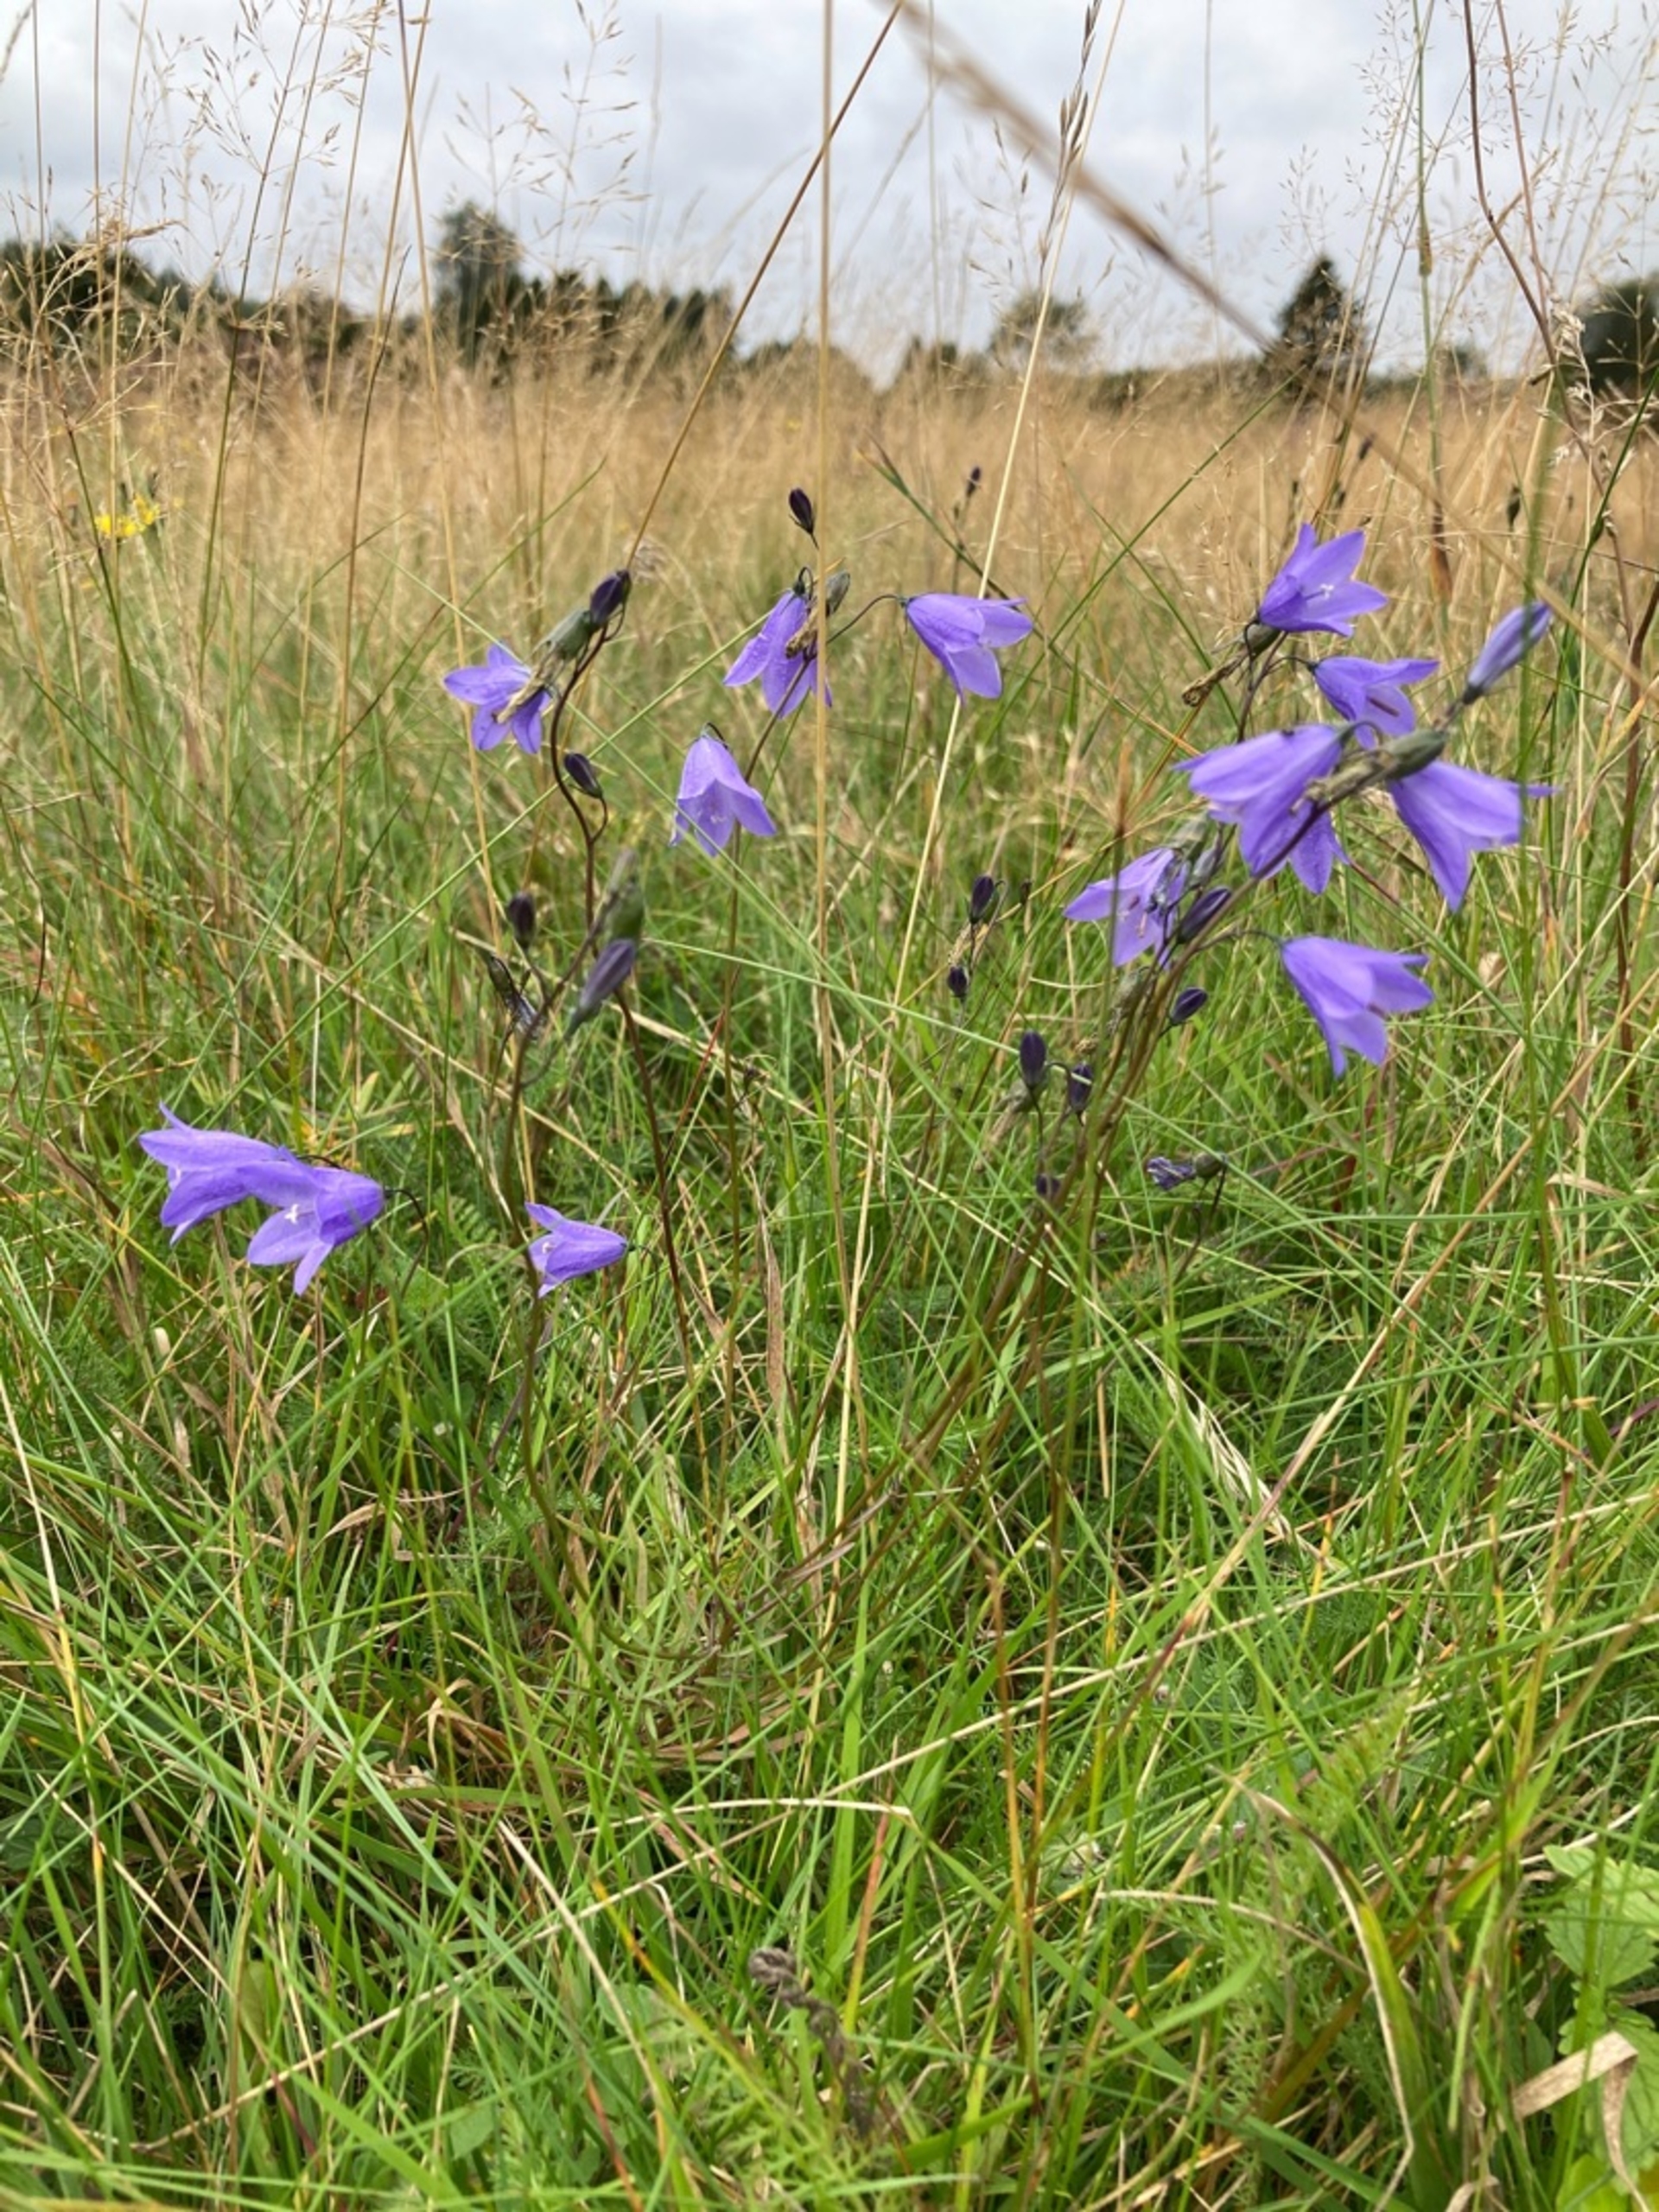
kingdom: Plantae
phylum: Tracheophyta
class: Magnoliopsida
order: Asterales
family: Campanulaceae
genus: Campanula
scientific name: Campanula rotundifolia
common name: Liden klokke
